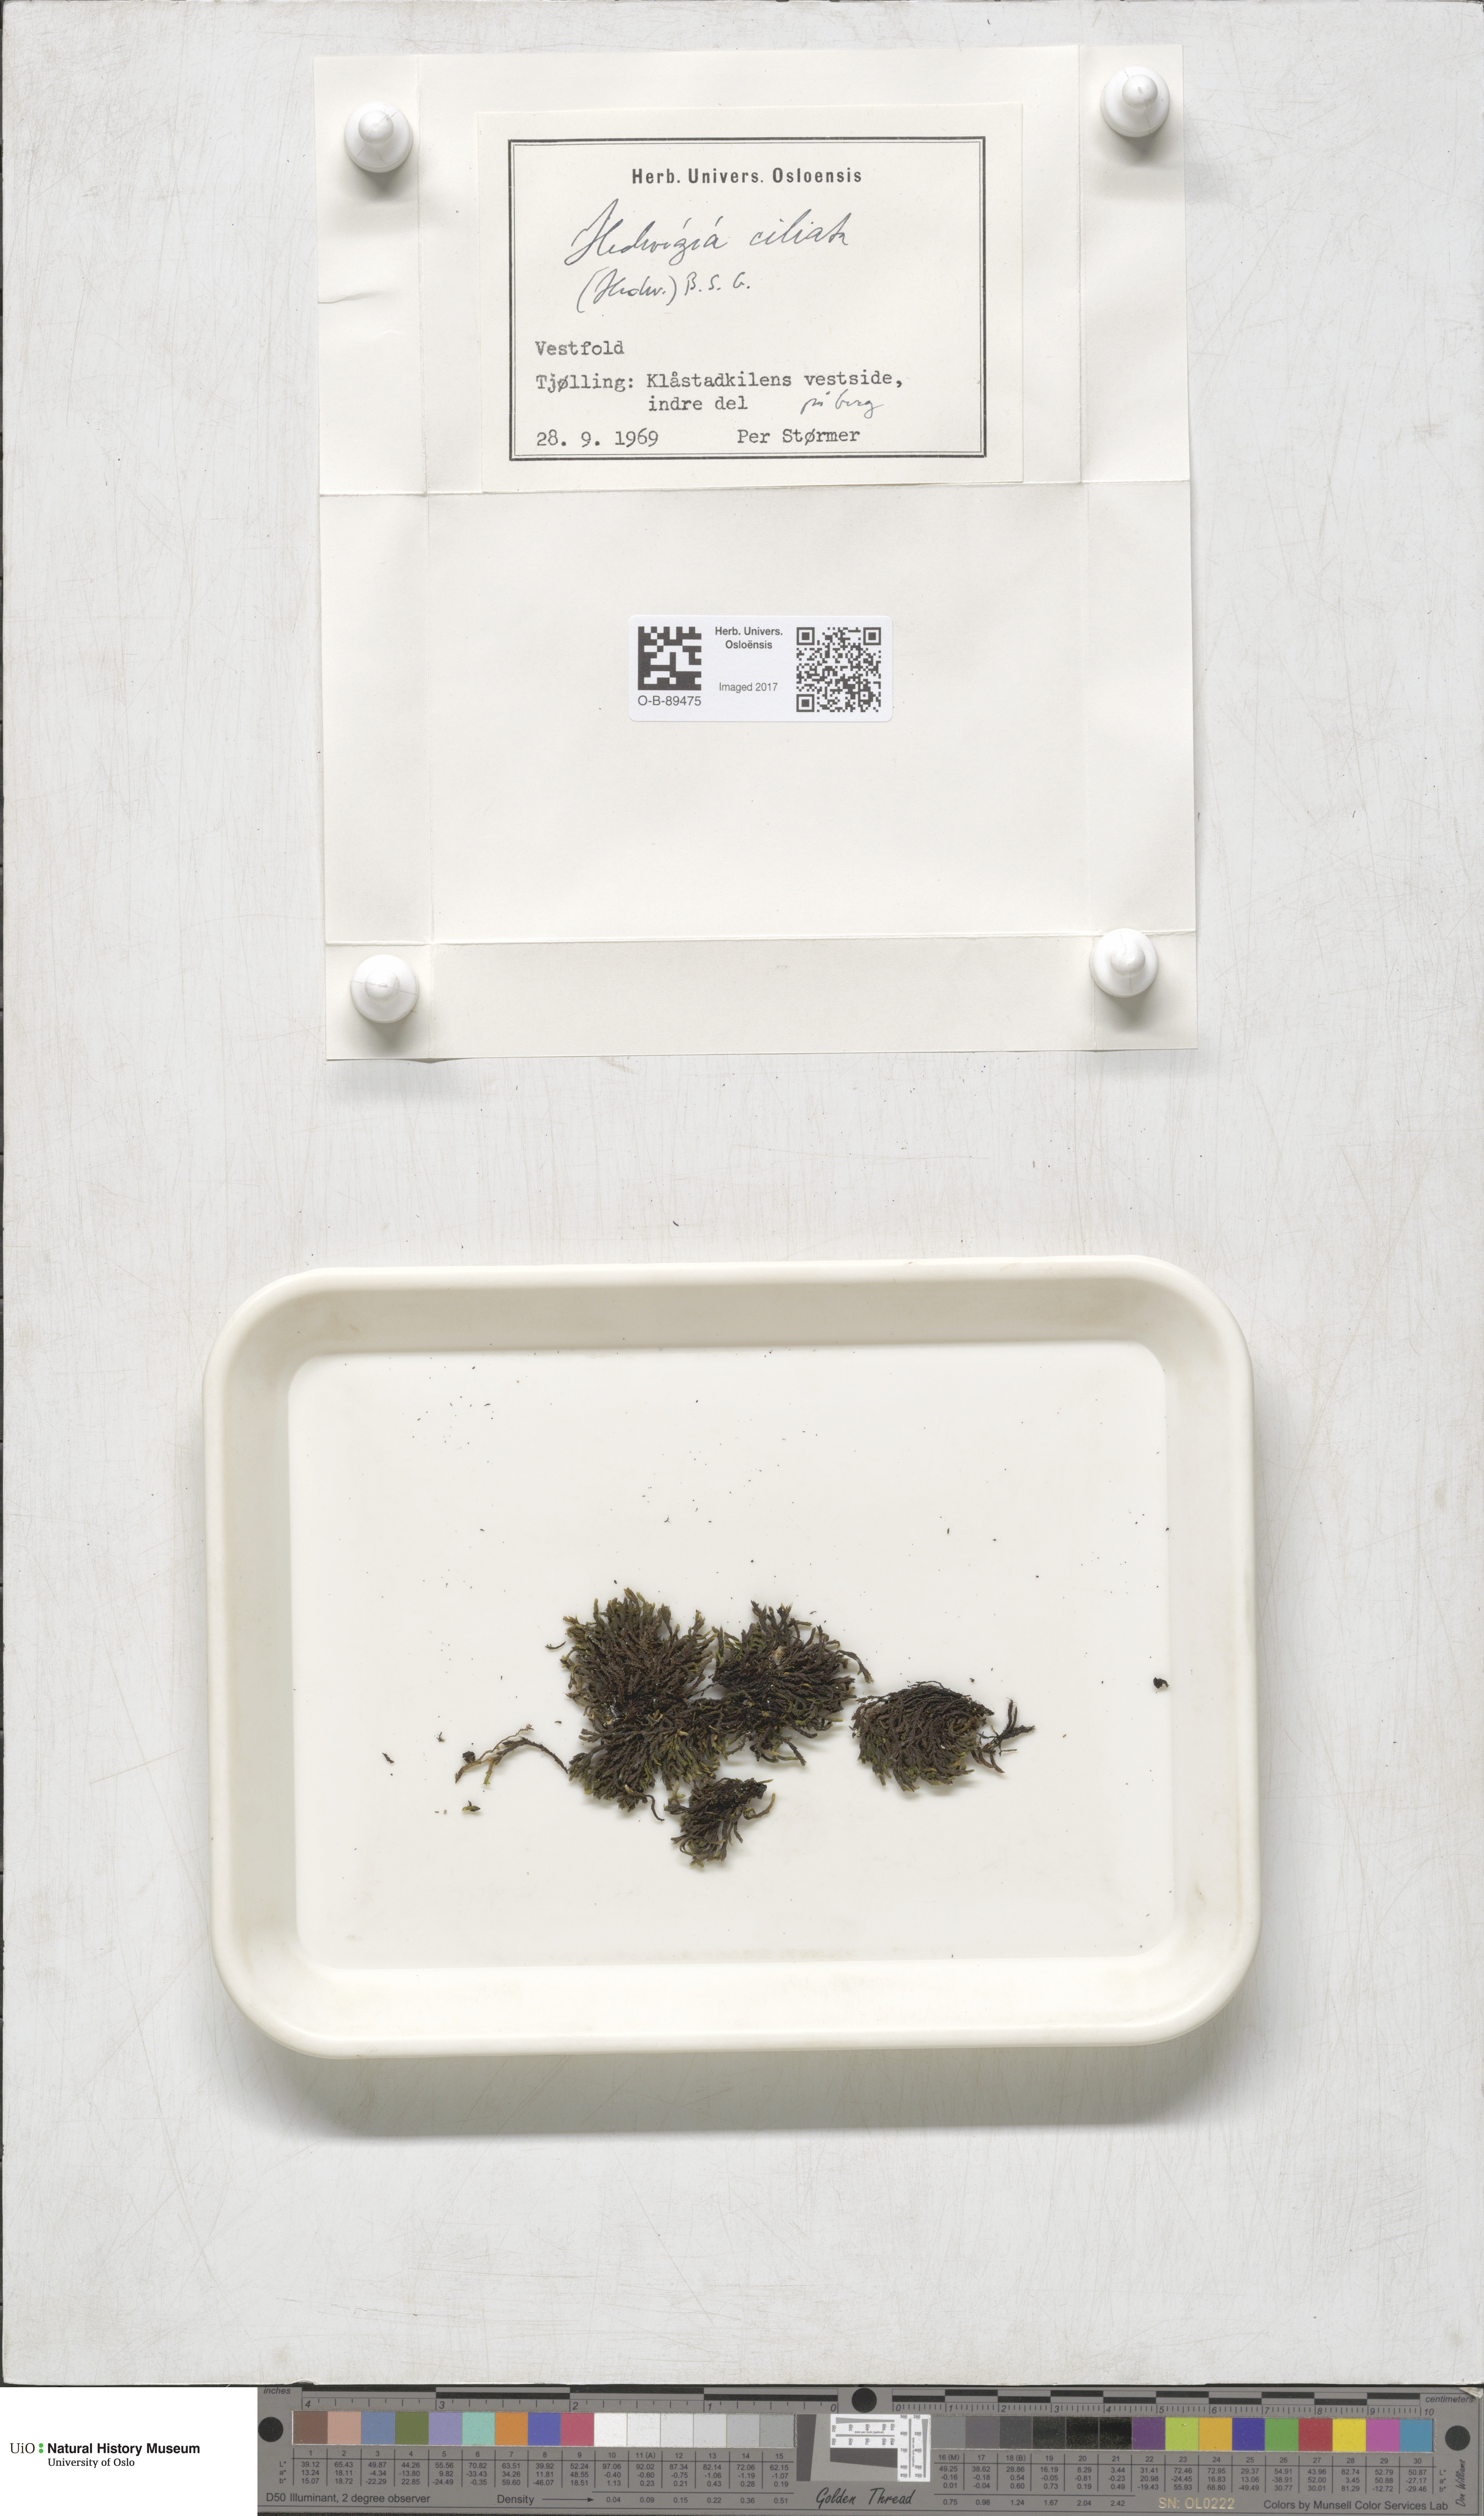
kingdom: Plantae
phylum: Bryophyta
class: Bryopsida
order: Hedwigiales
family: Hedwigiaceae
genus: Hedwigia
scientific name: Hedwigia ciliata
